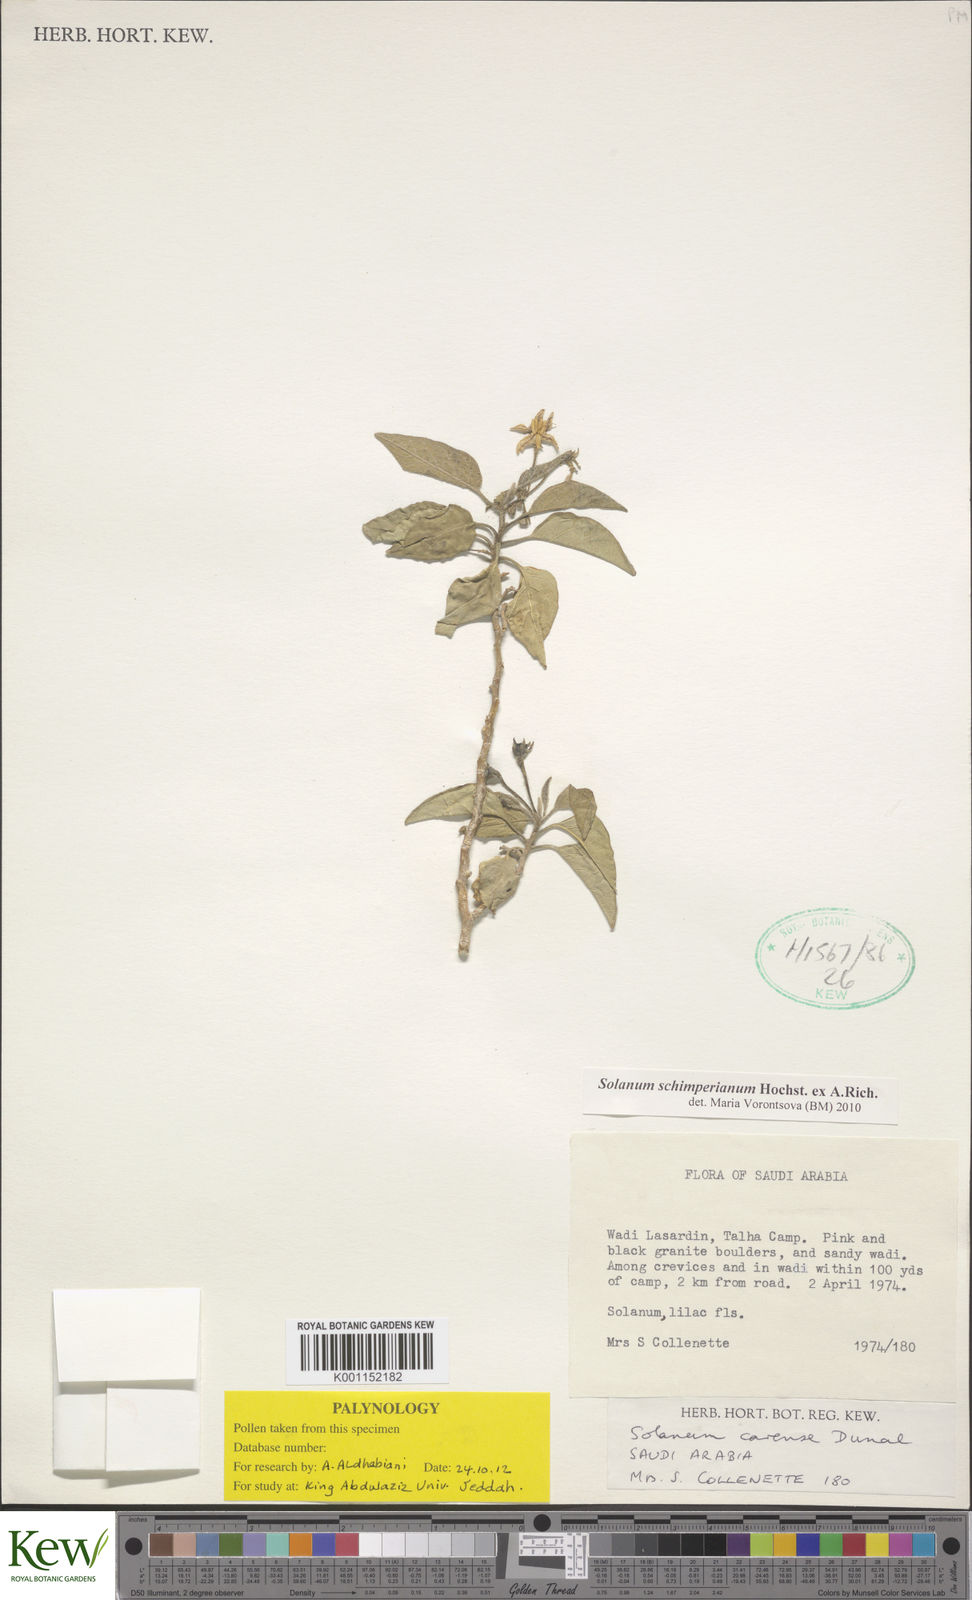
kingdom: Plantae
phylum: Tracheophyta
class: Magnoliopsida
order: Solanales
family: Solanaceae
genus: Solanum
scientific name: Solanum
